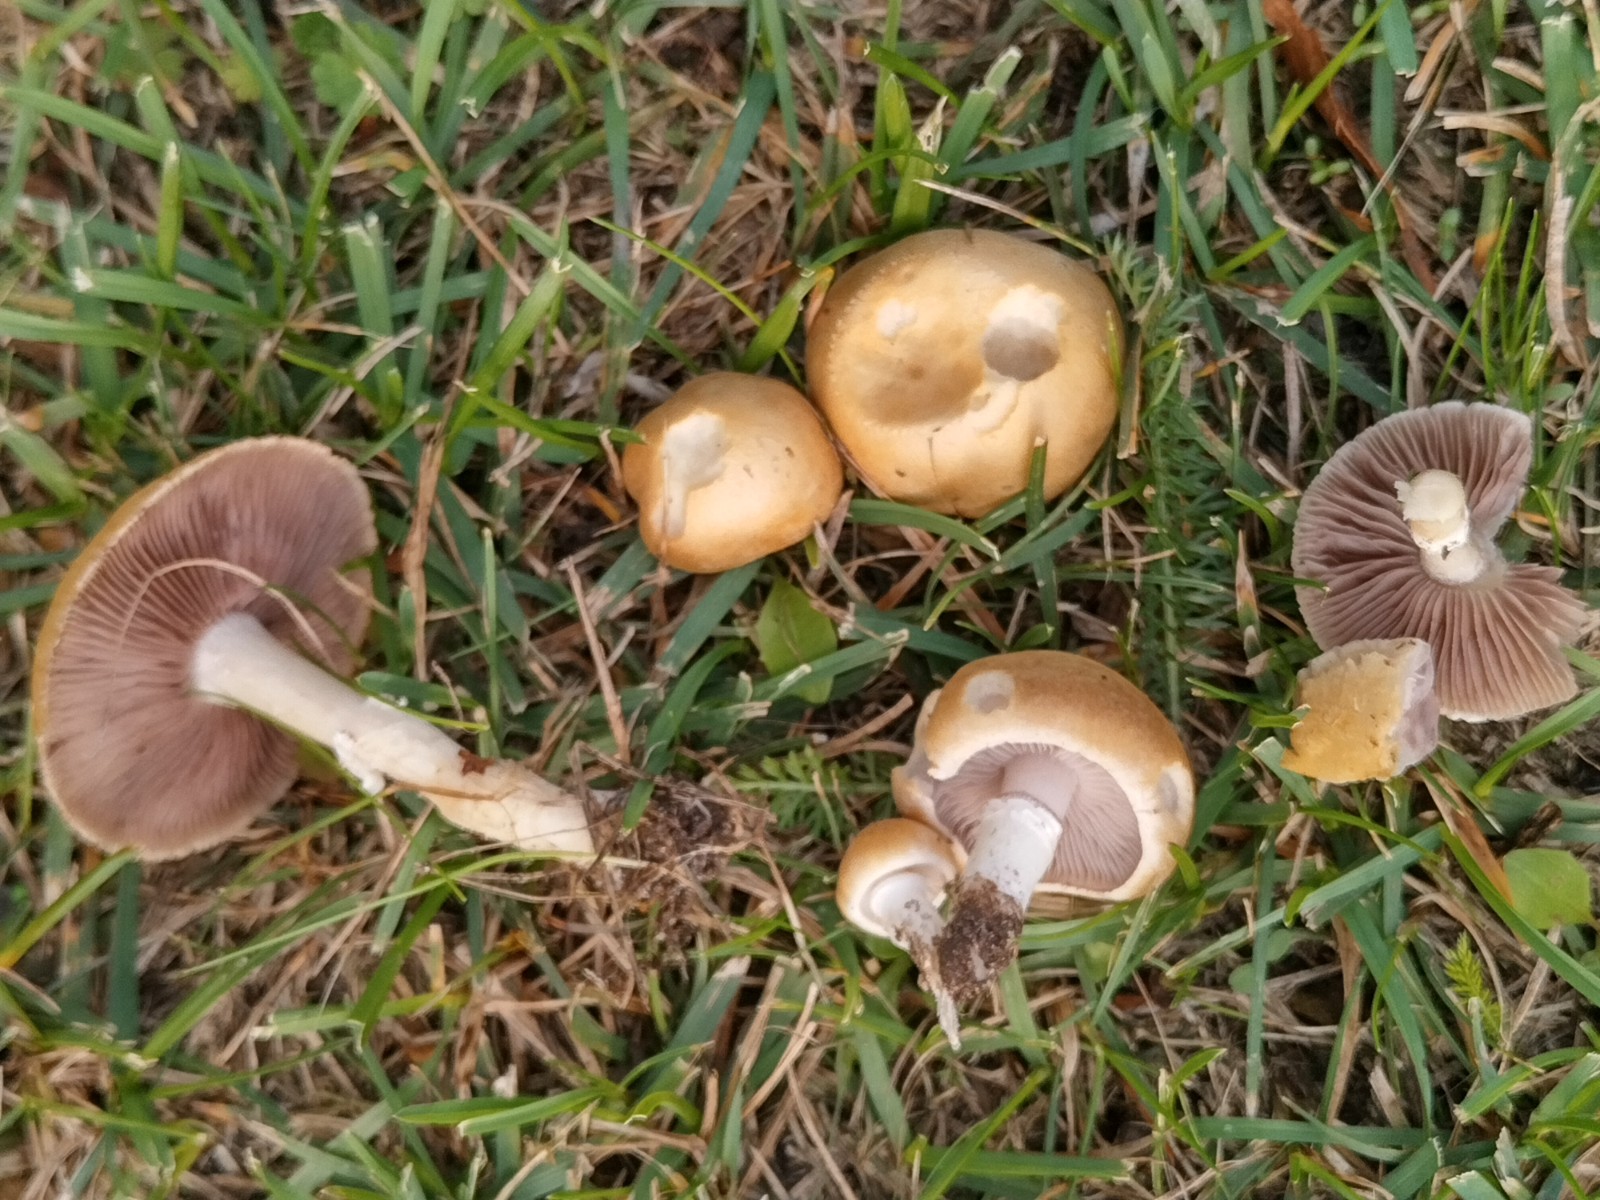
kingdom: Fungi
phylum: Basidiomycota
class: Agaricomycetes
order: Agaricales
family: Hymenogastraceae
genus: Psilocybe
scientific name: Psilocybe coronilla
